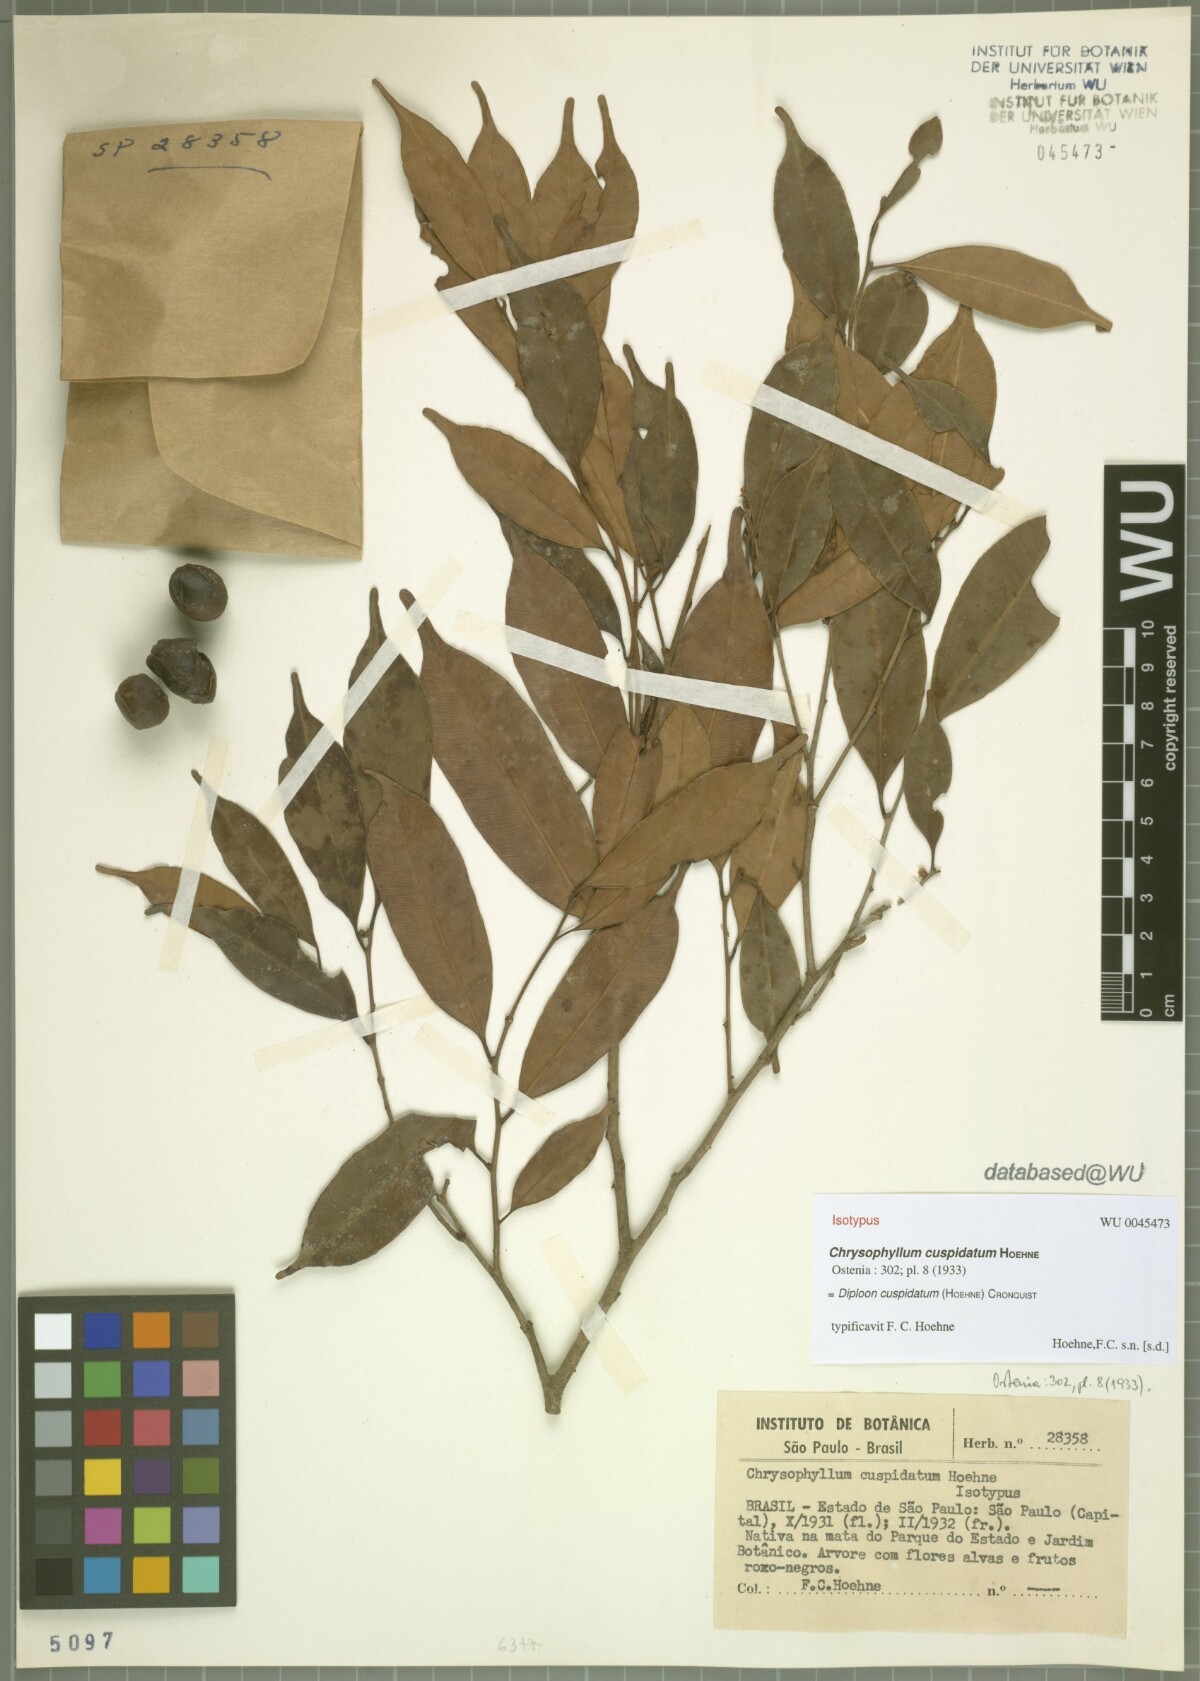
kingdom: Plantae
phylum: Tracheophyta
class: Magnoliopsida
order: Ericales
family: Sapotaceae
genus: Diploon
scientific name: Diploon cuspidatum
